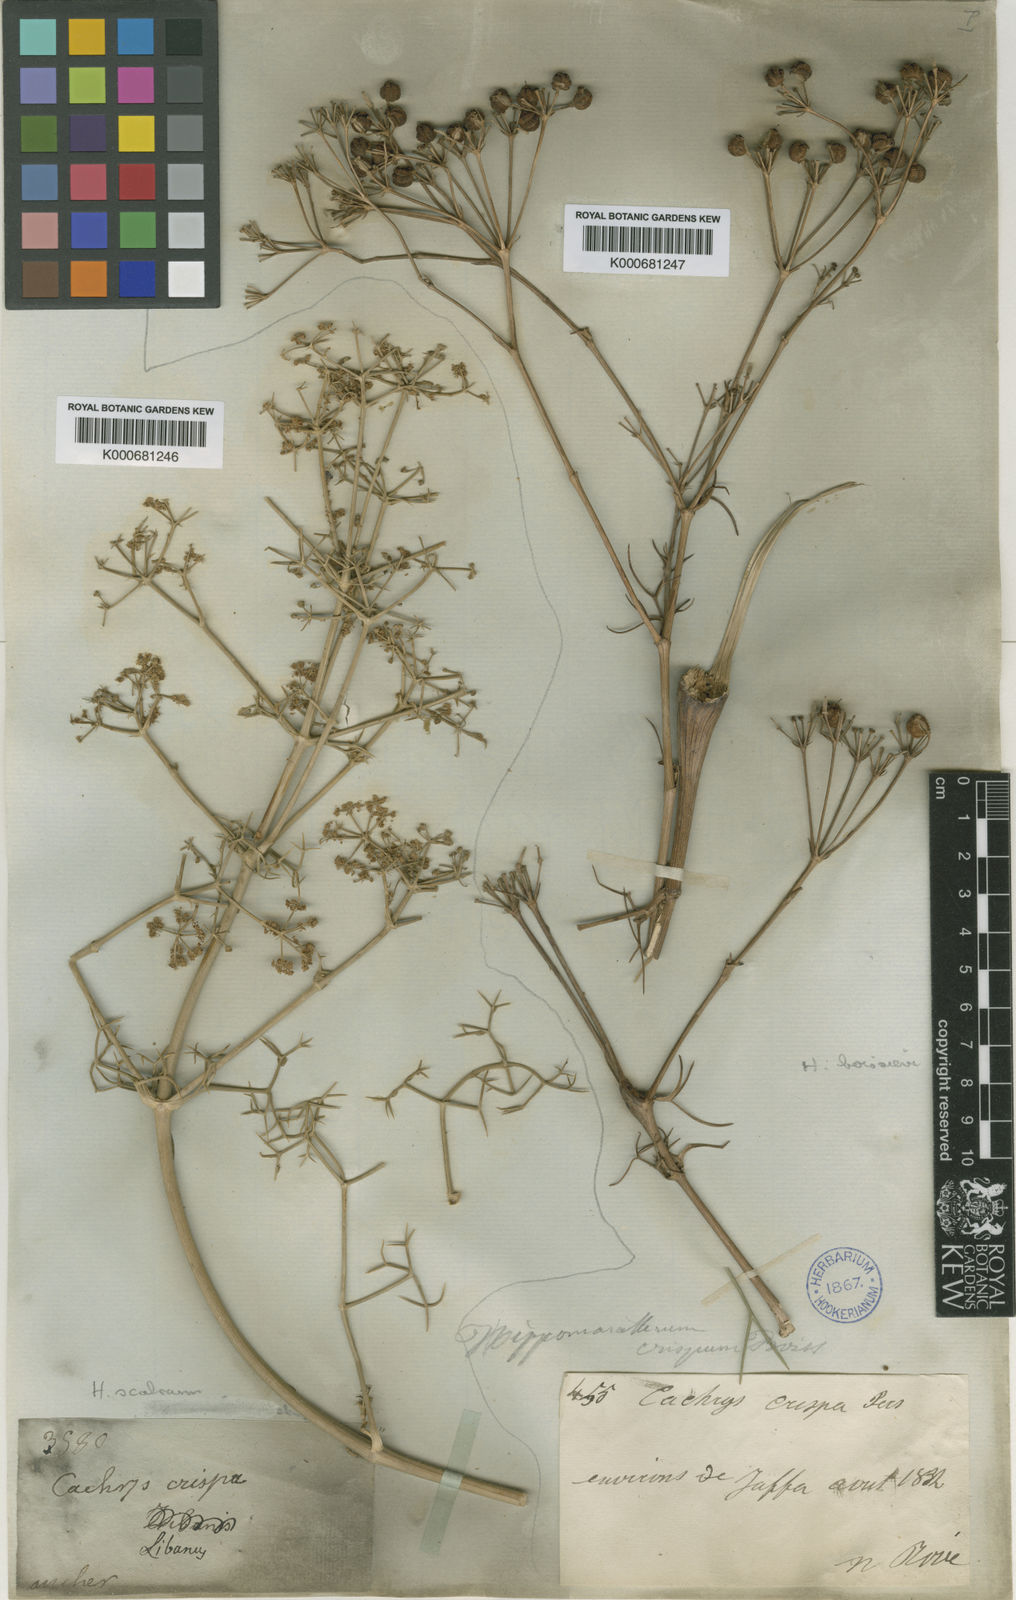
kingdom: Plantae
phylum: Tracheophyta
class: Magnoliopsida
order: Apiales
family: Apiaceae
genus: Bilacunaria
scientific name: Bilacunaria microcarpa
